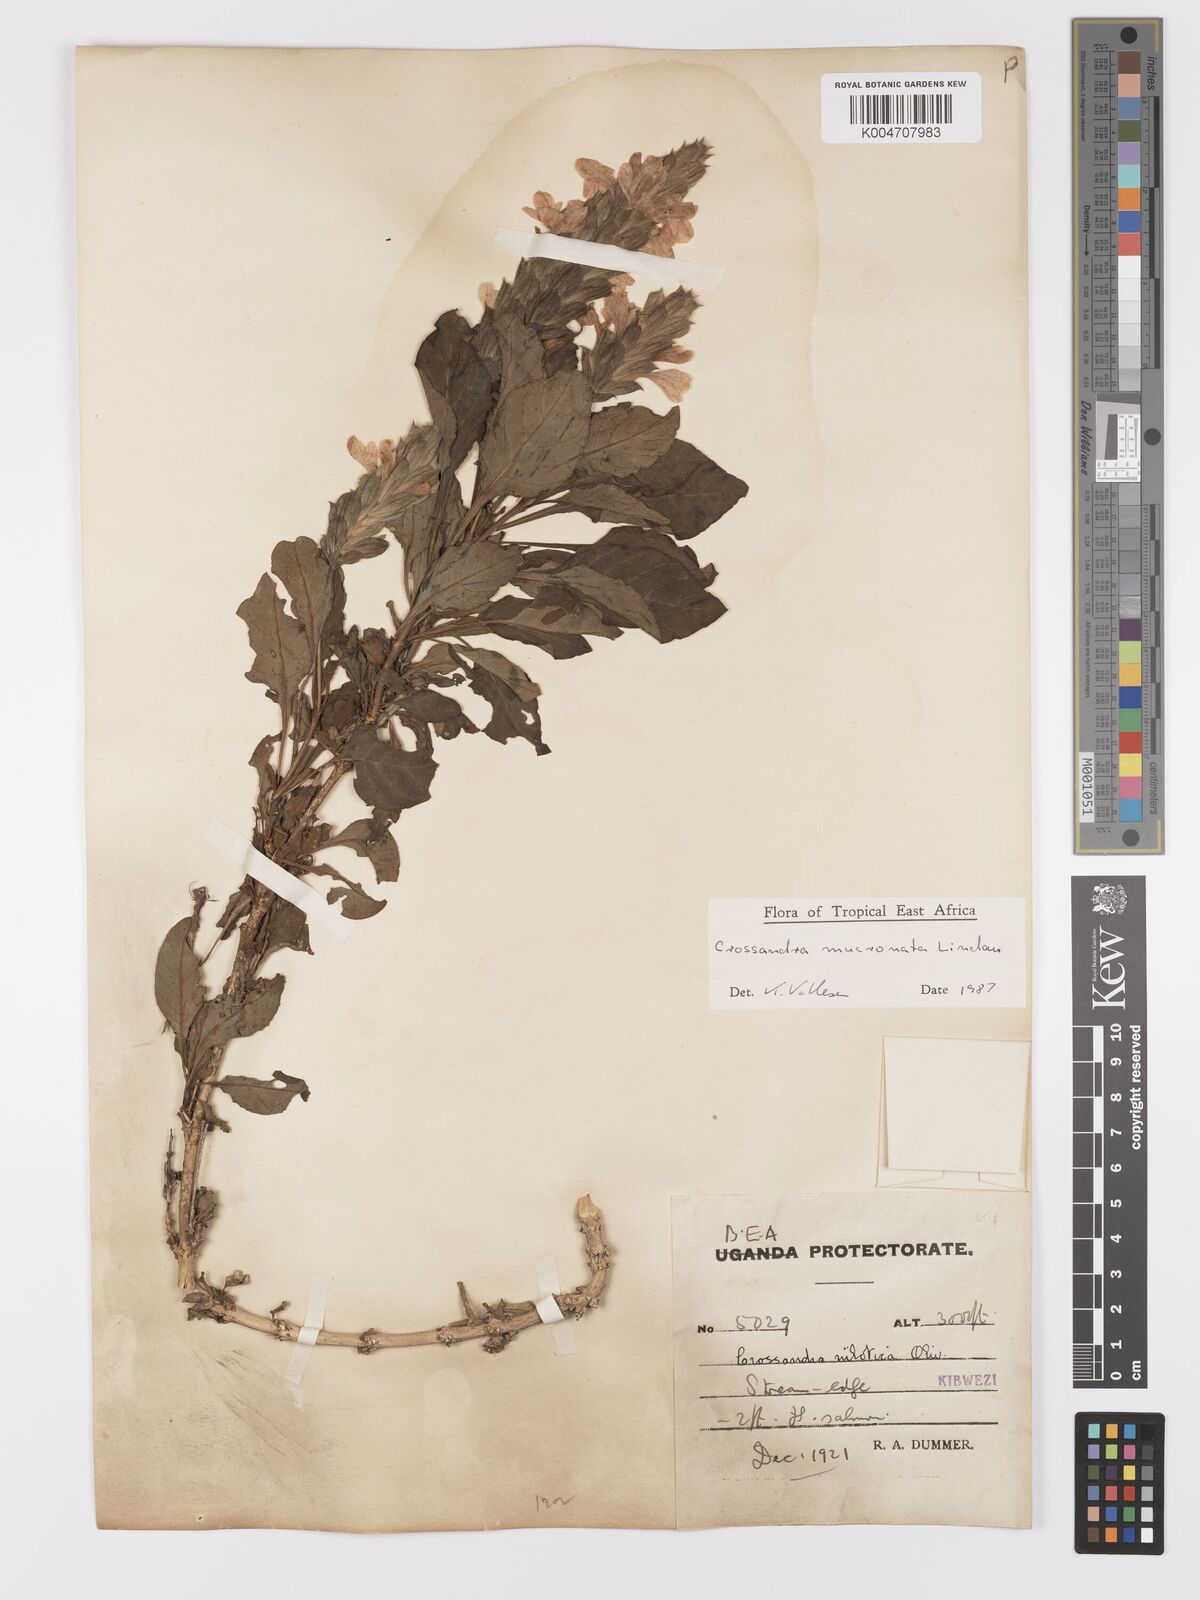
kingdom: Plantae
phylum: Tracheophyta
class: Magnoliopsida
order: Lamiales
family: Acanthaceae
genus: Crossandra
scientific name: Crossandra mucronata
